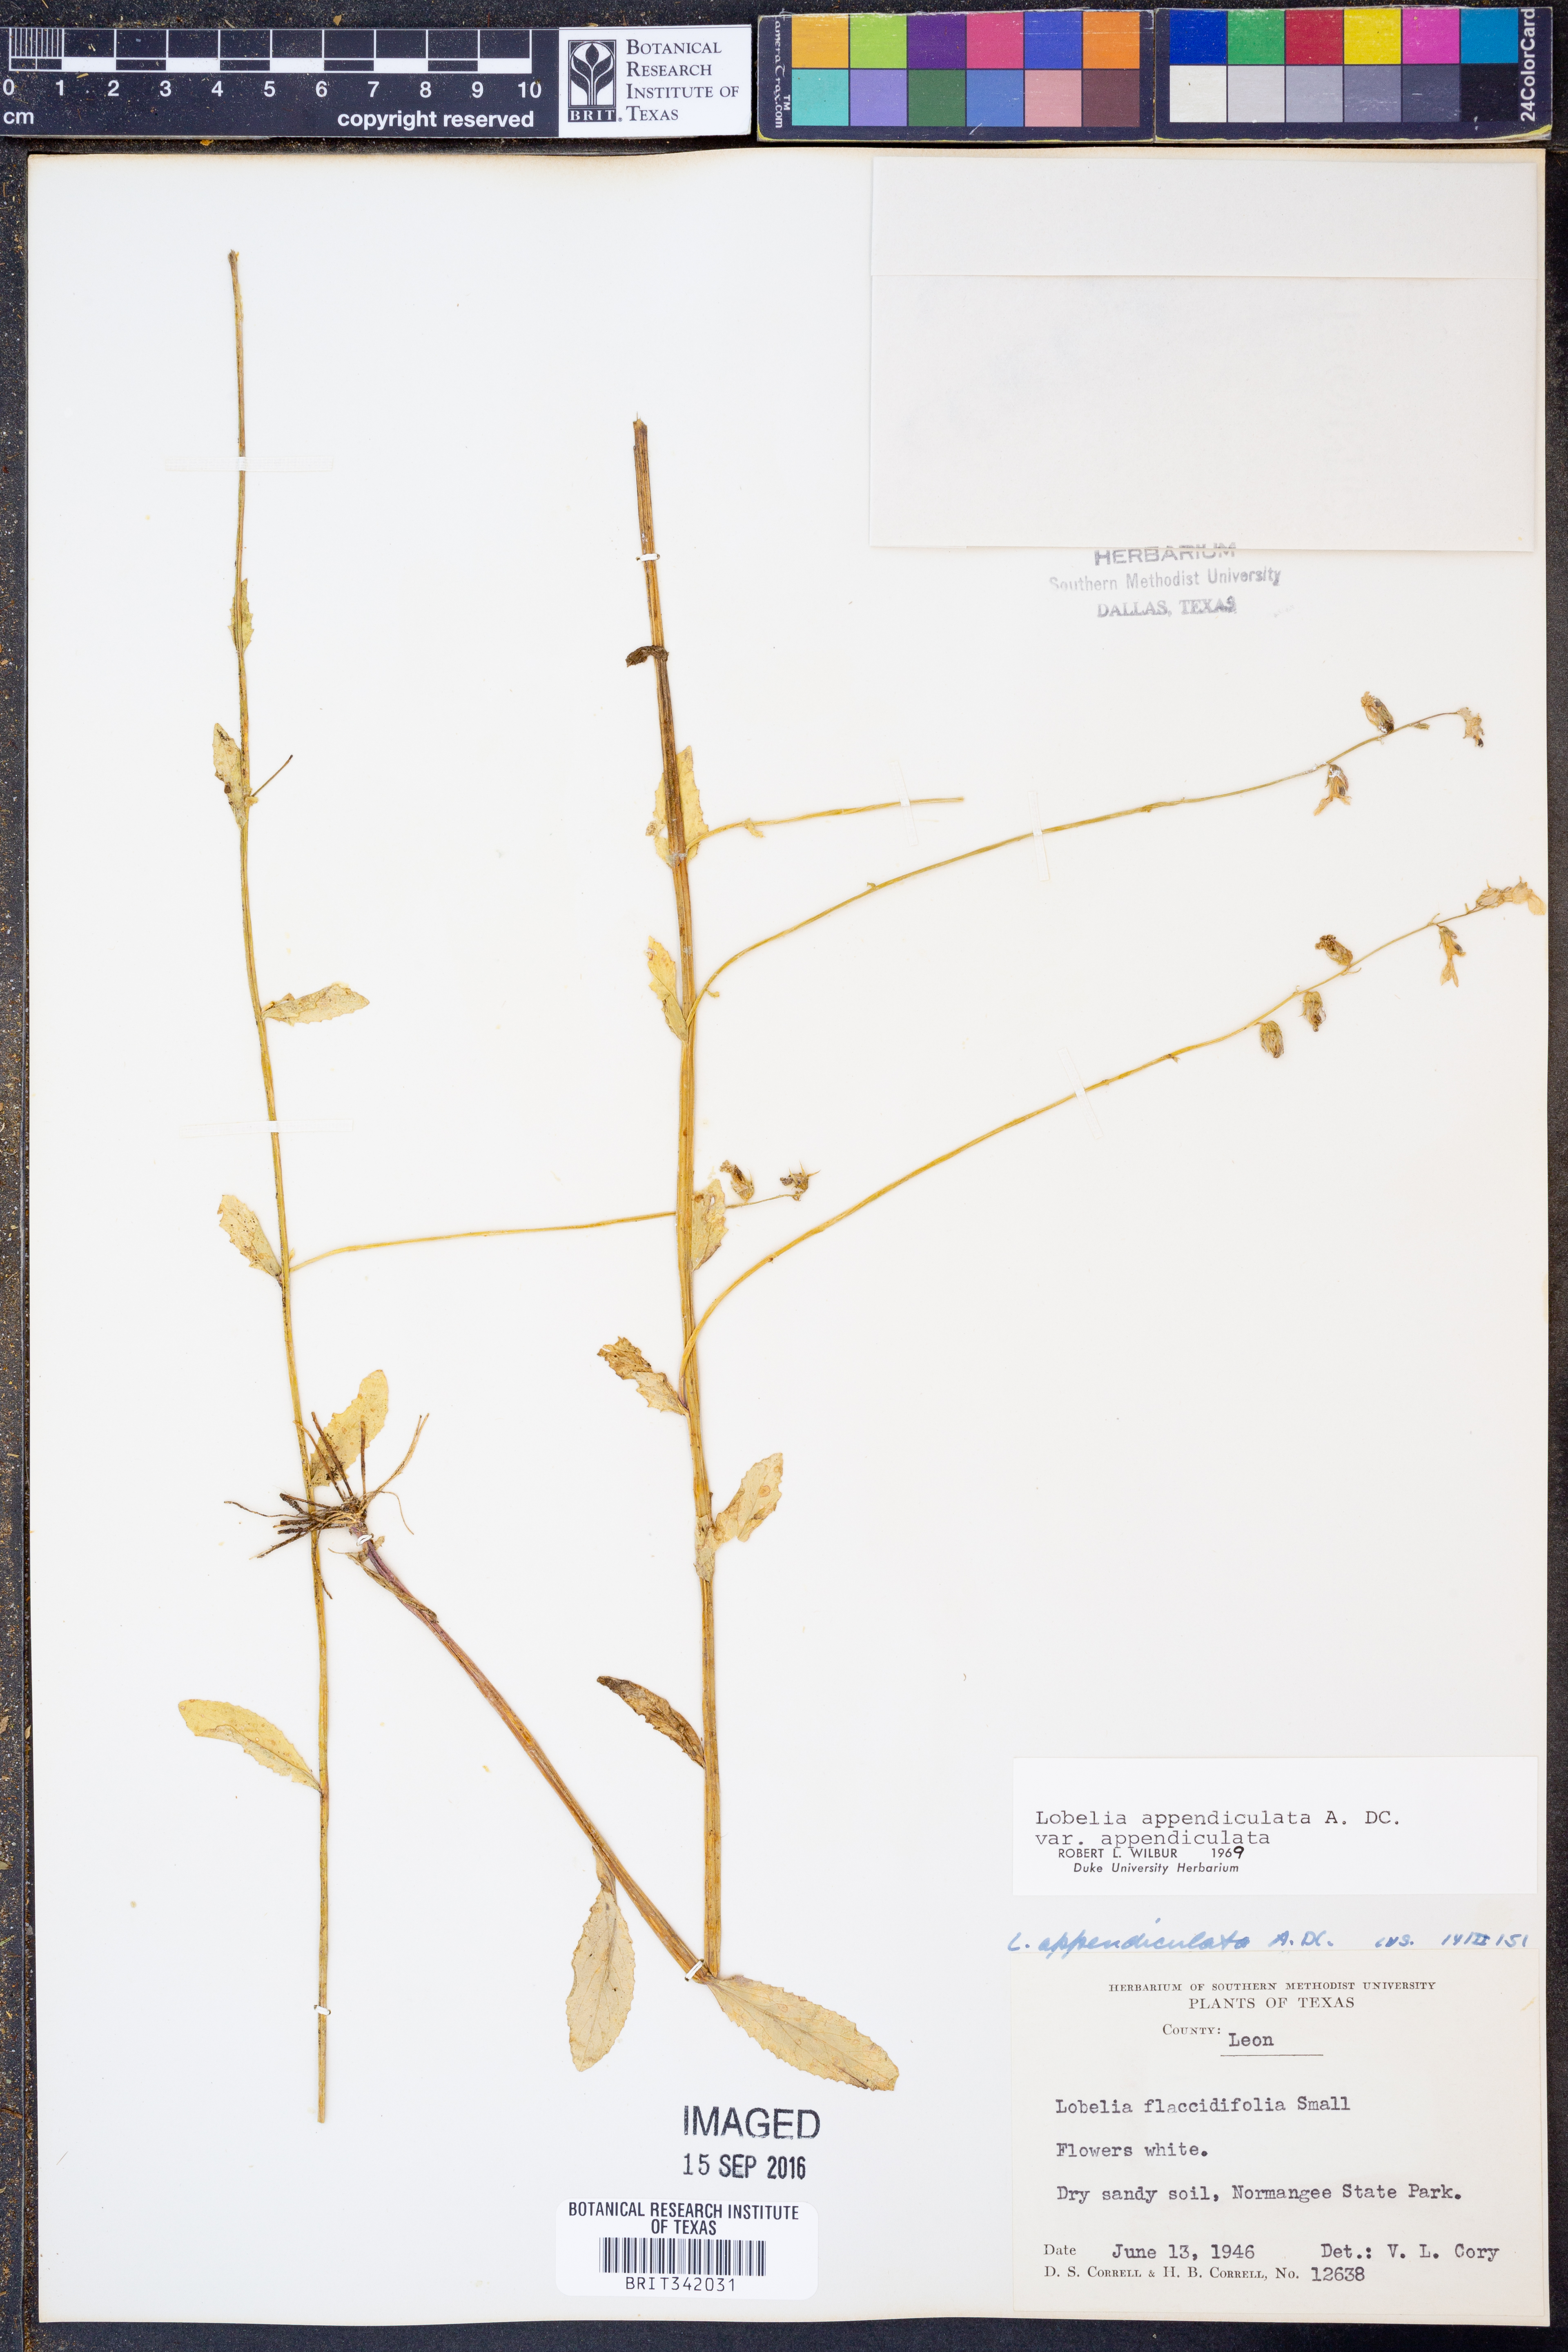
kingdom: Plantae
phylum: Tracheophyta
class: Magnoliopsida
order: Asterales
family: Campanulaceae
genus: Lobelia
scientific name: Lobelia appendiculata
